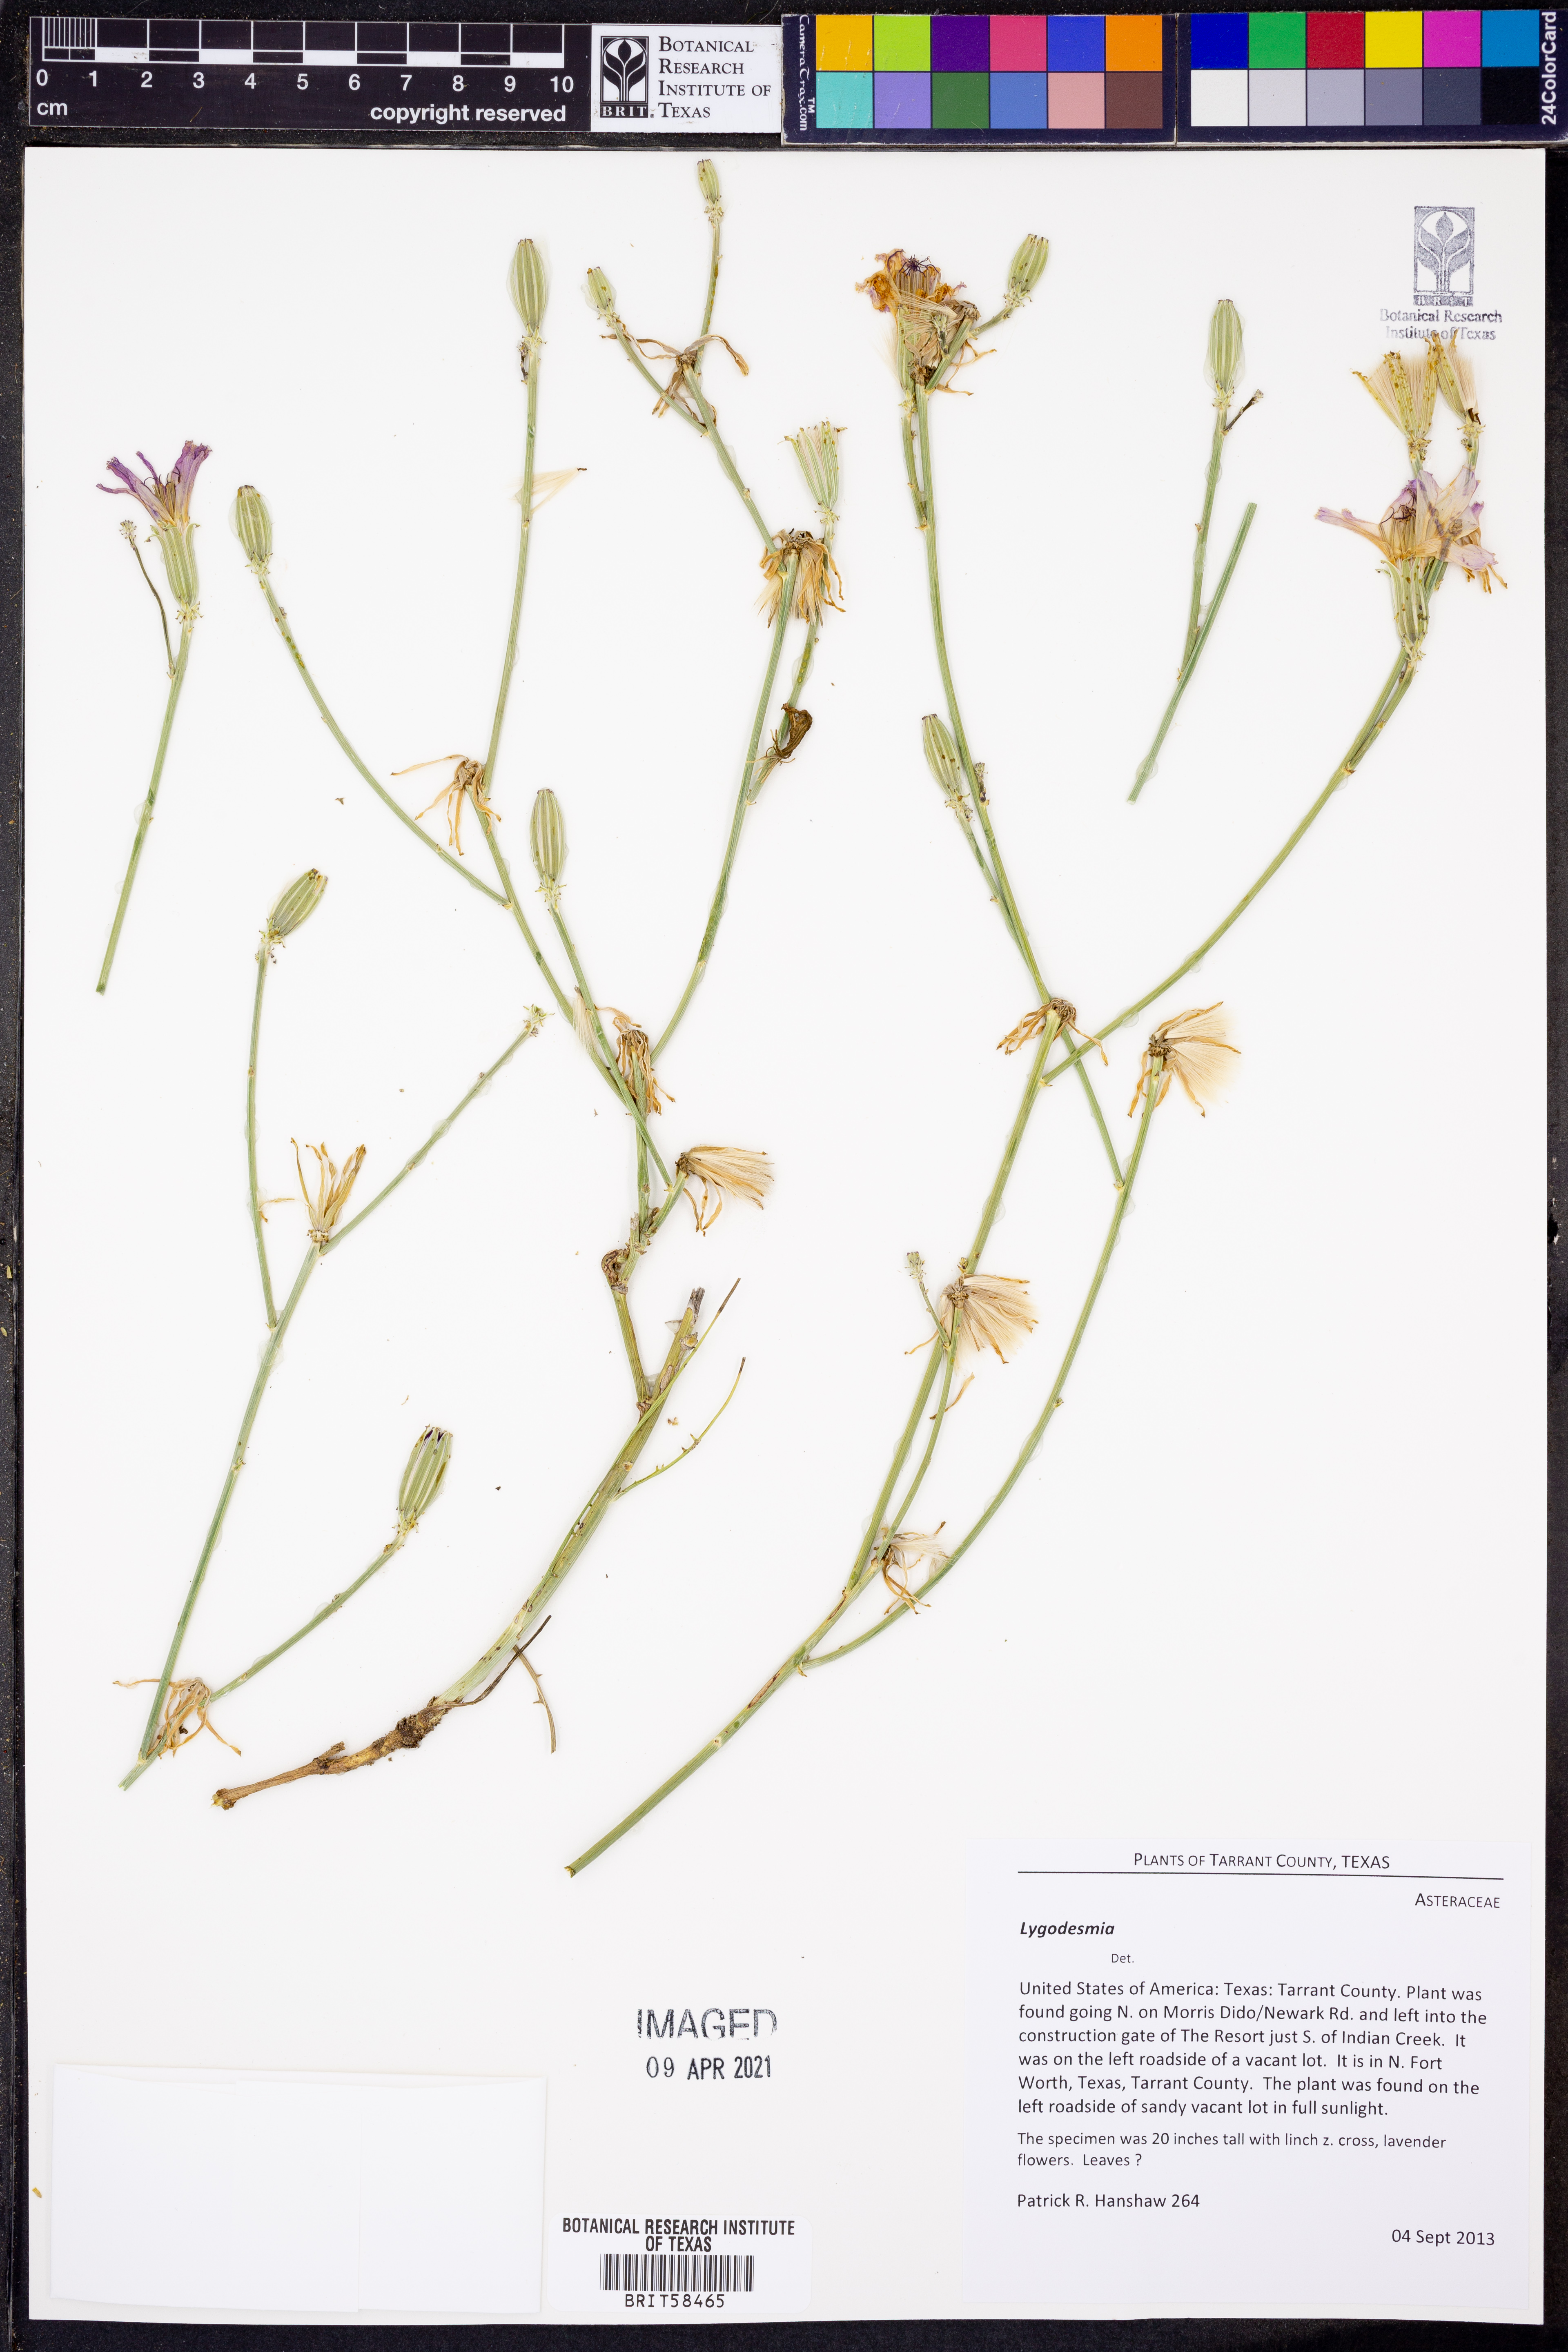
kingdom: Plantae
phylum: Tracheophyta
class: Magnoliopsida
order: Asterales
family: Asteraceae
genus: Lygodesmia
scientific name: Lygodesmia
